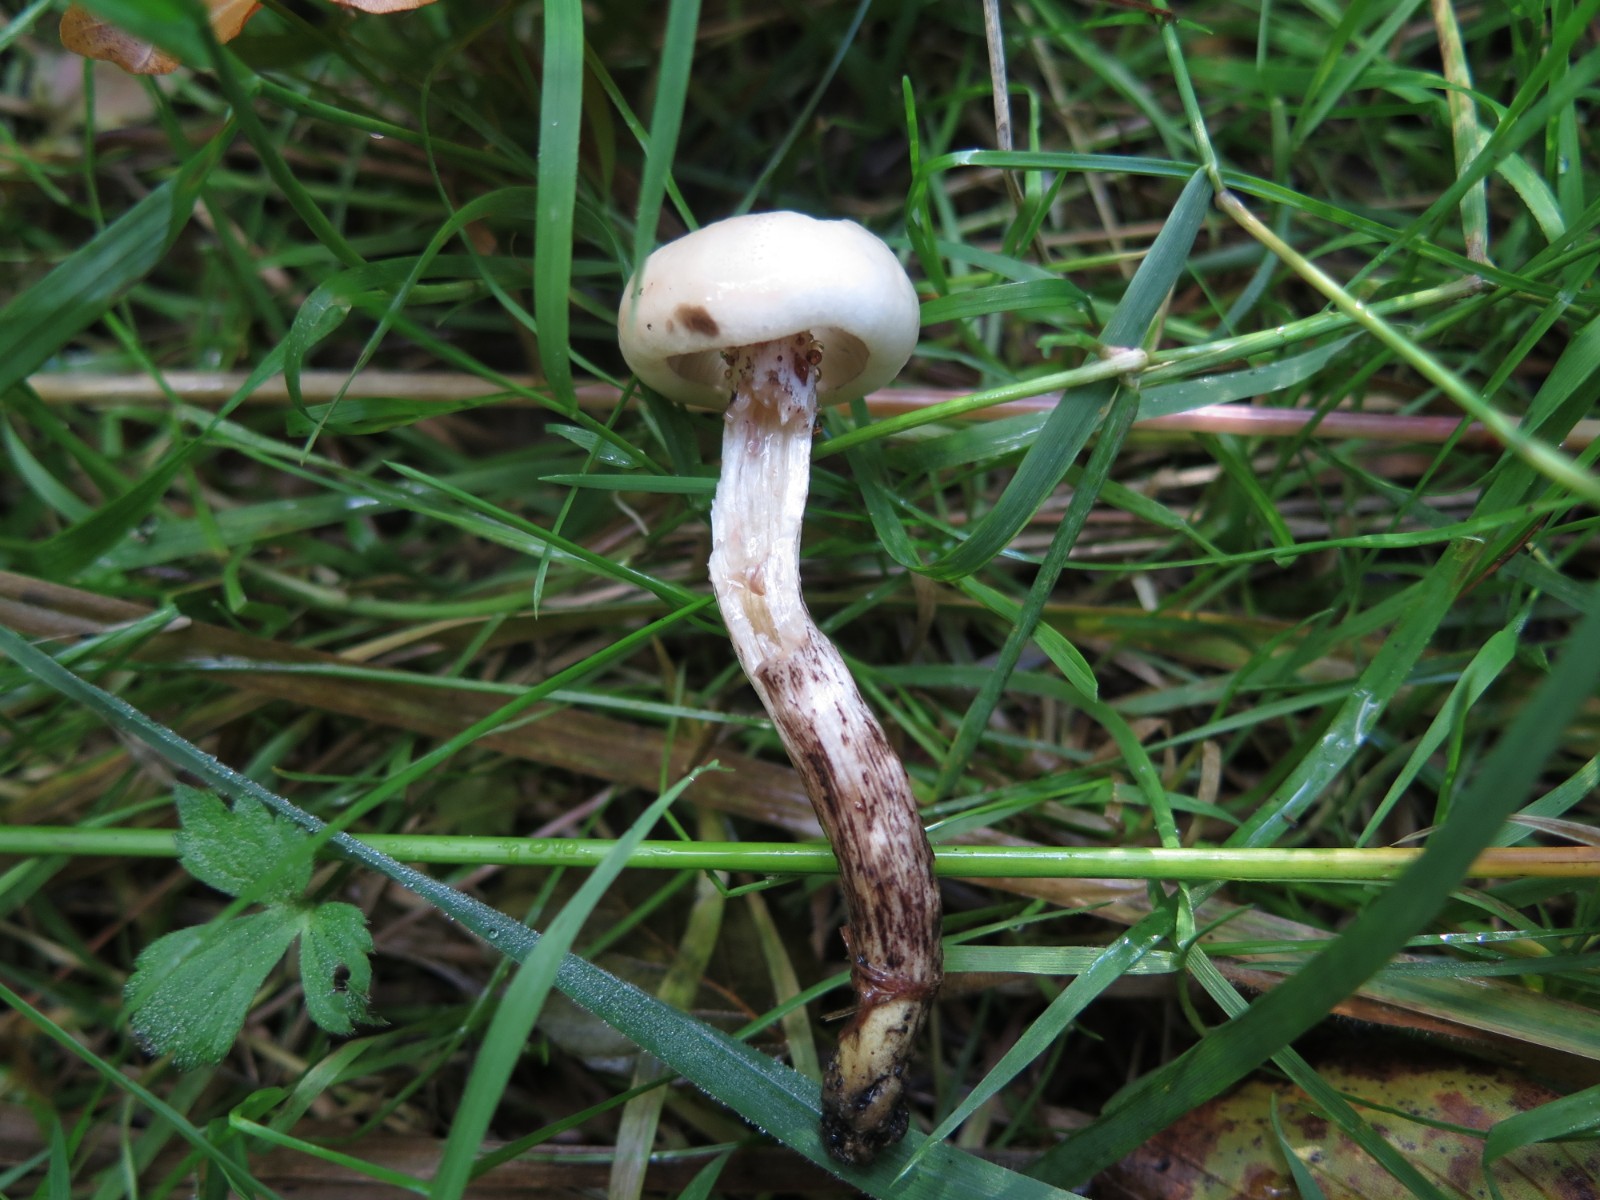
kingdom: Fungi
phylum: Basidiomycota
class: Agaricomycetes
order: Agaricales
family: Hygrophoraceae
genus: Hygrophorus
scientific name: Hygrophorus discoxanthus
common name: ildelugtende sneglehat
